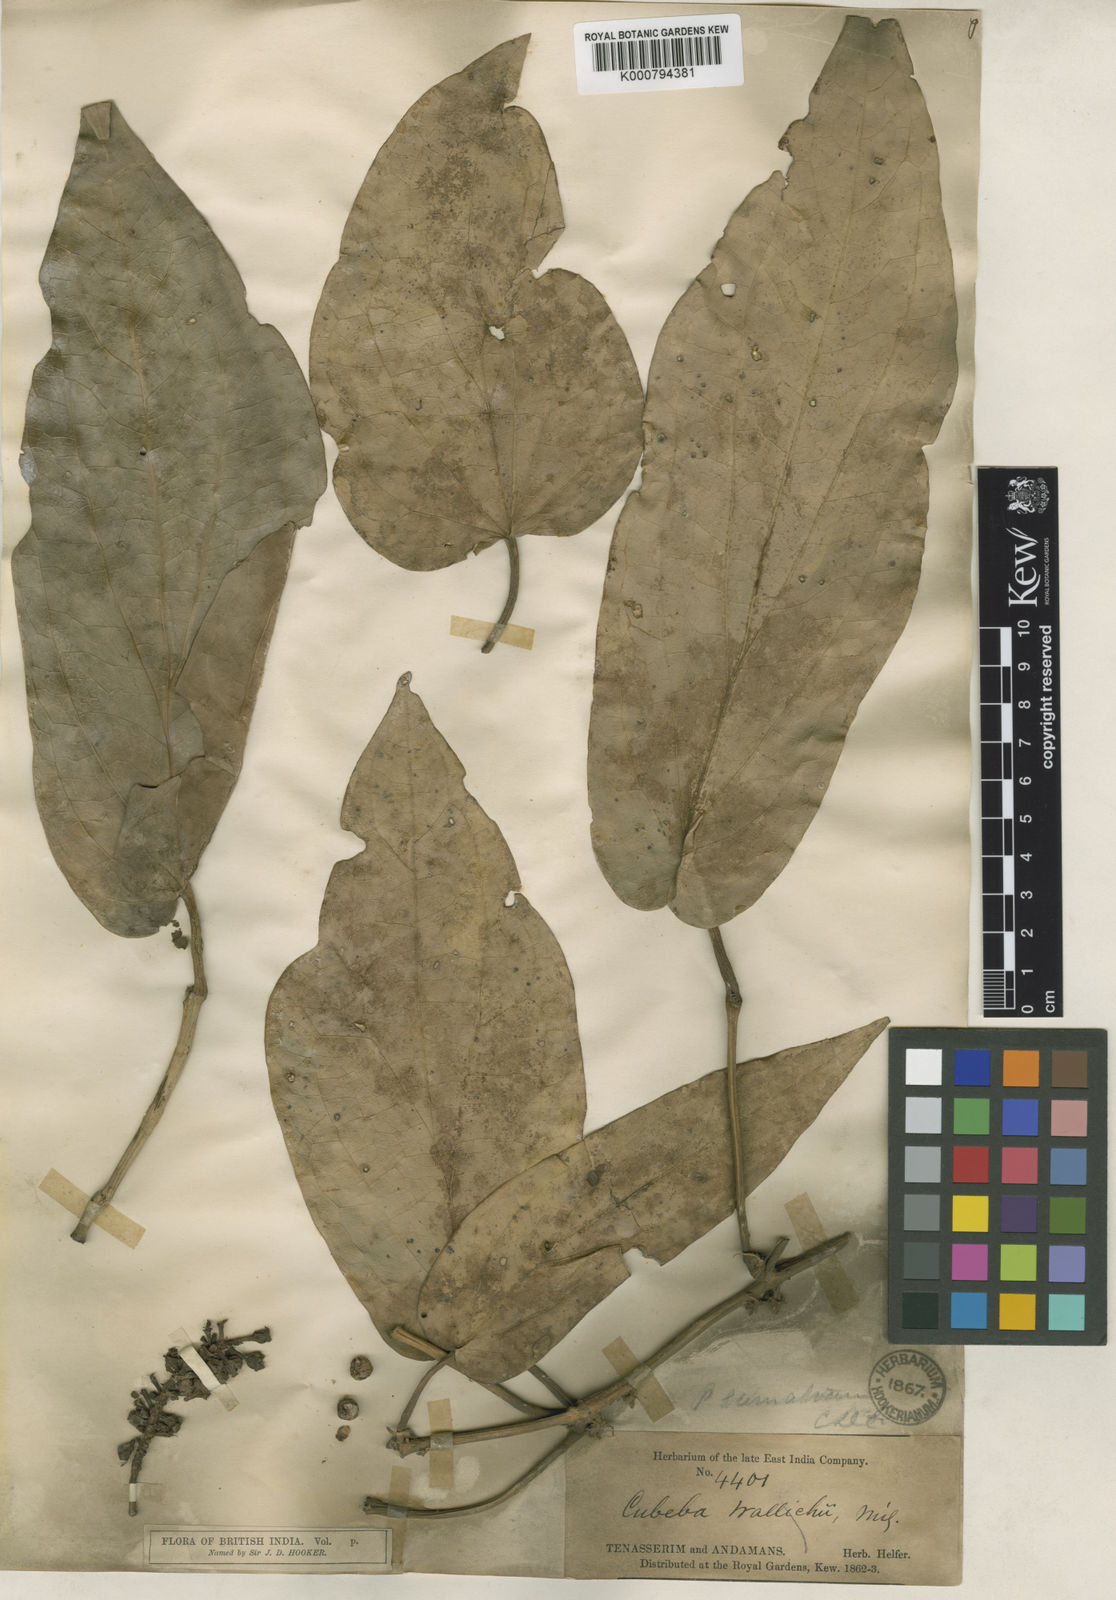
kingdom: Plantae
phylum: Tracheophyta
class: Magnoliopsida
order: Piperales
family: Piperaceae
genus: Piper
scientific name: Piper ribesioides
